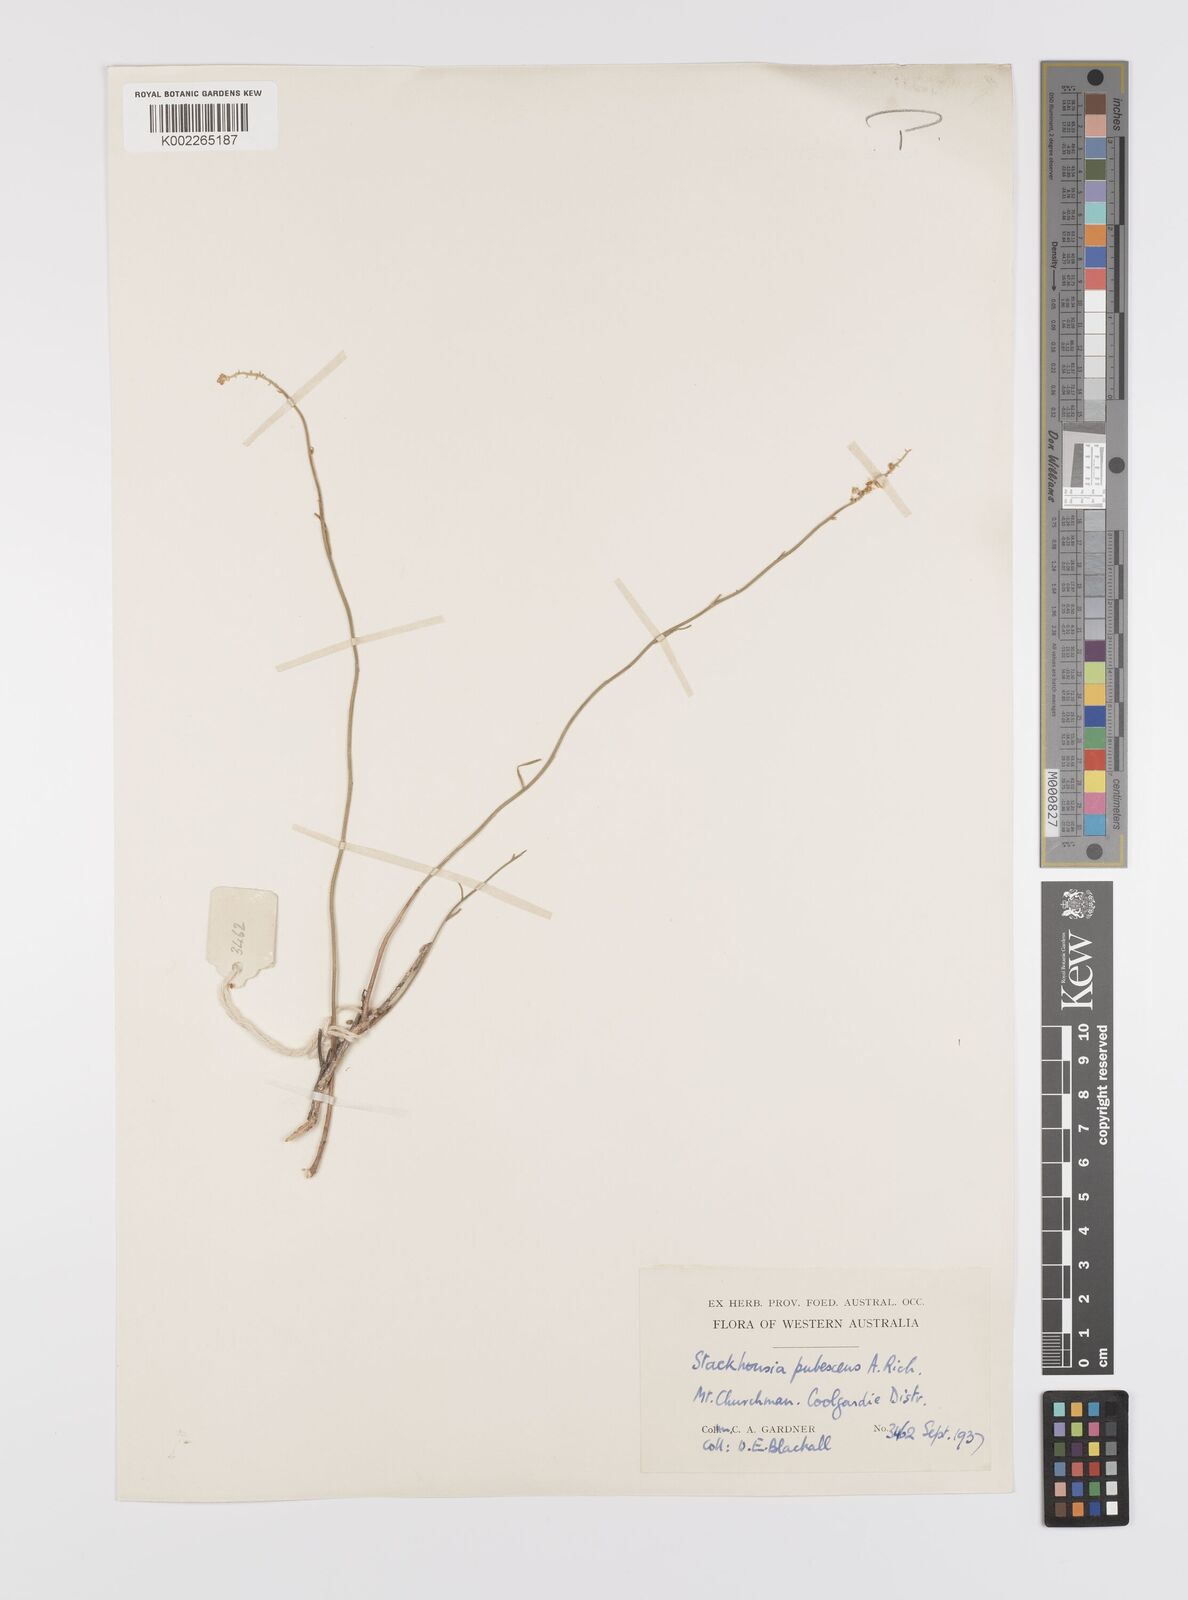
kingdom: Plantae
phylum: Tracheophyta
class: Magnoliopsida
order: Celastrales
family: Celastraceae
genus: Stackhousia
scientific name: Stackhousia monogyna
